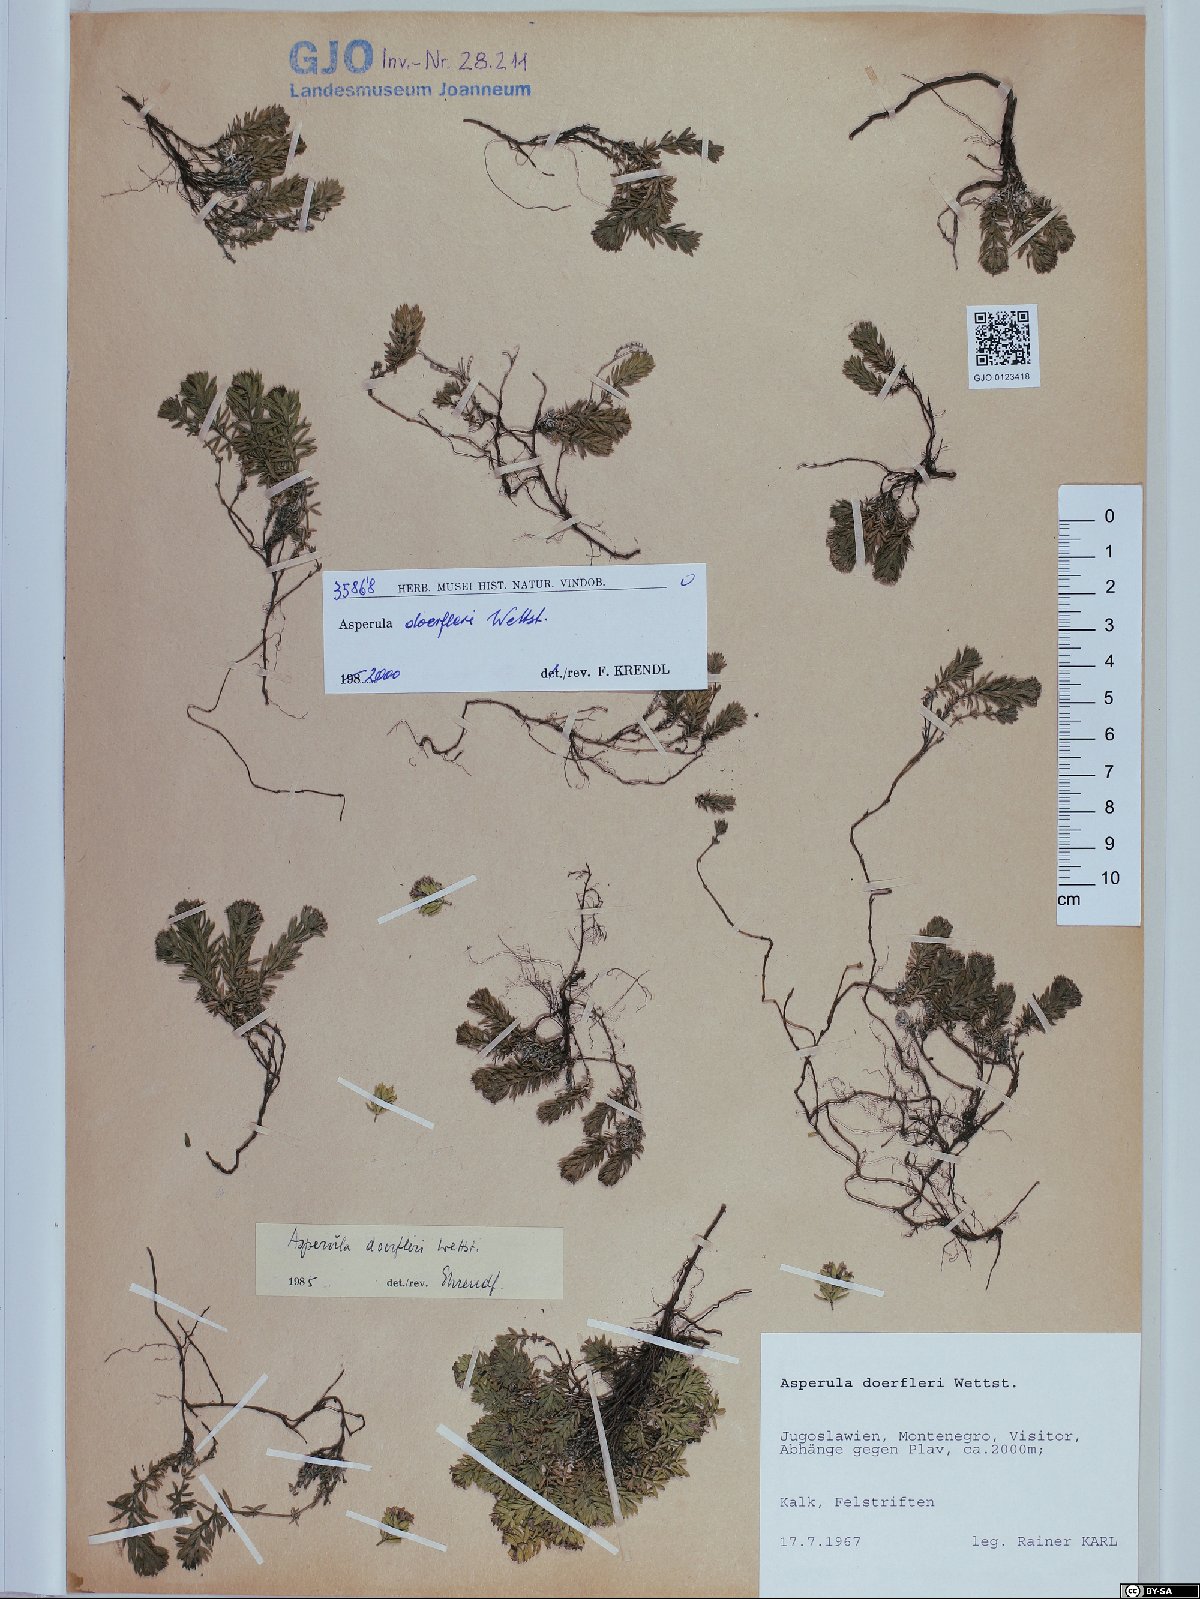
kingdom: Plantae
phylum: Tracheophyta
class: Magnoliopsida
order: Gentianales
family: Rubiaceae
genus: Hexaphylla
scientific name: Hexaphylla doerfleri
